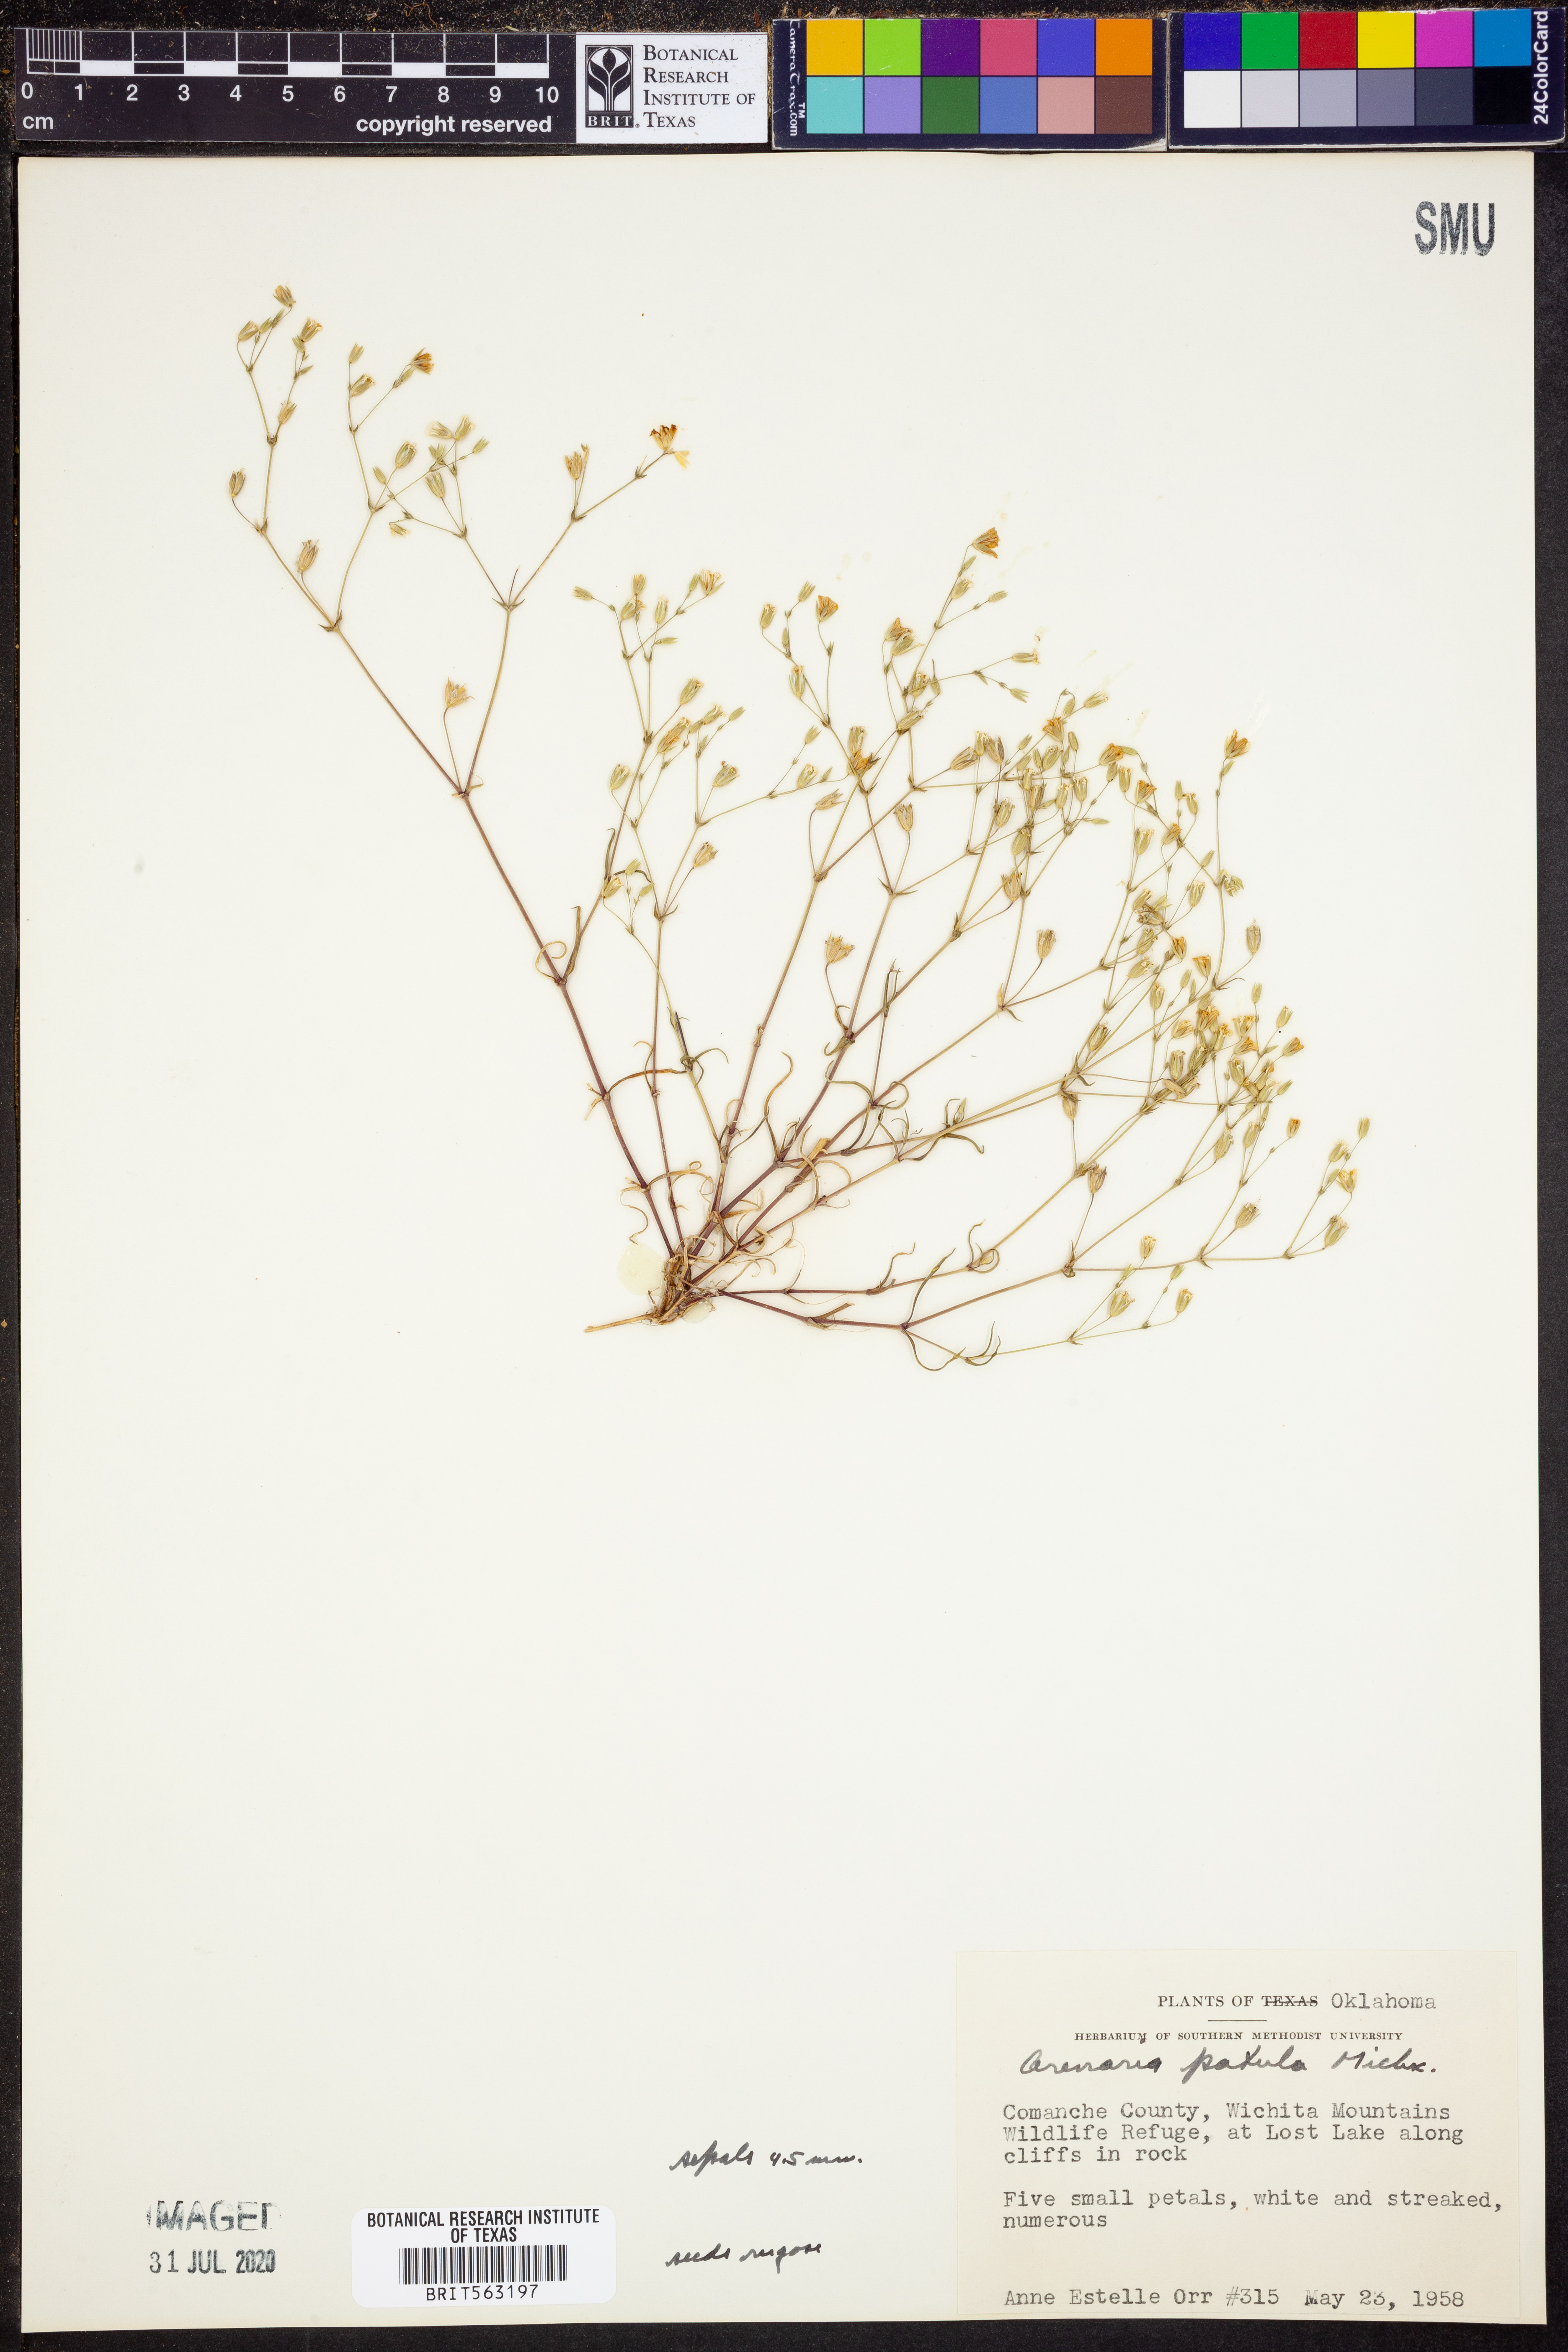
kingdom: Plantae
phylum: Tracheophyta
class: Magnoliopsida
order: Caryophyllales
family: Caryophyllaceae
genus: Mononeuria
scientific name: Mononeuria patula
